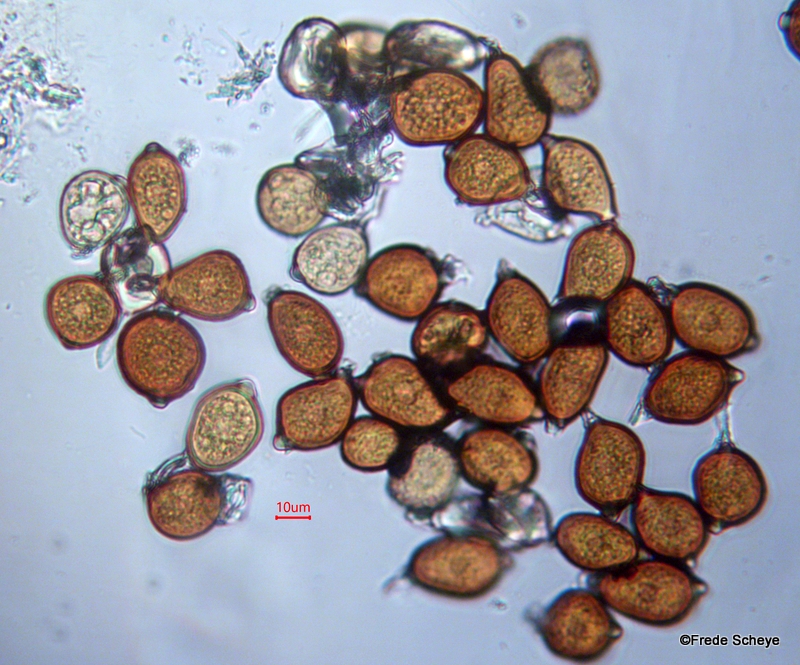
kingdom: Fungi
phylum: Basidiomycota
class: Pucciniomycetes
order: Pucciniales
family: Pucciniaceae
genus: Uromyces
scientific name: Uromyces ficariae
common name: vorterod-encellerust
